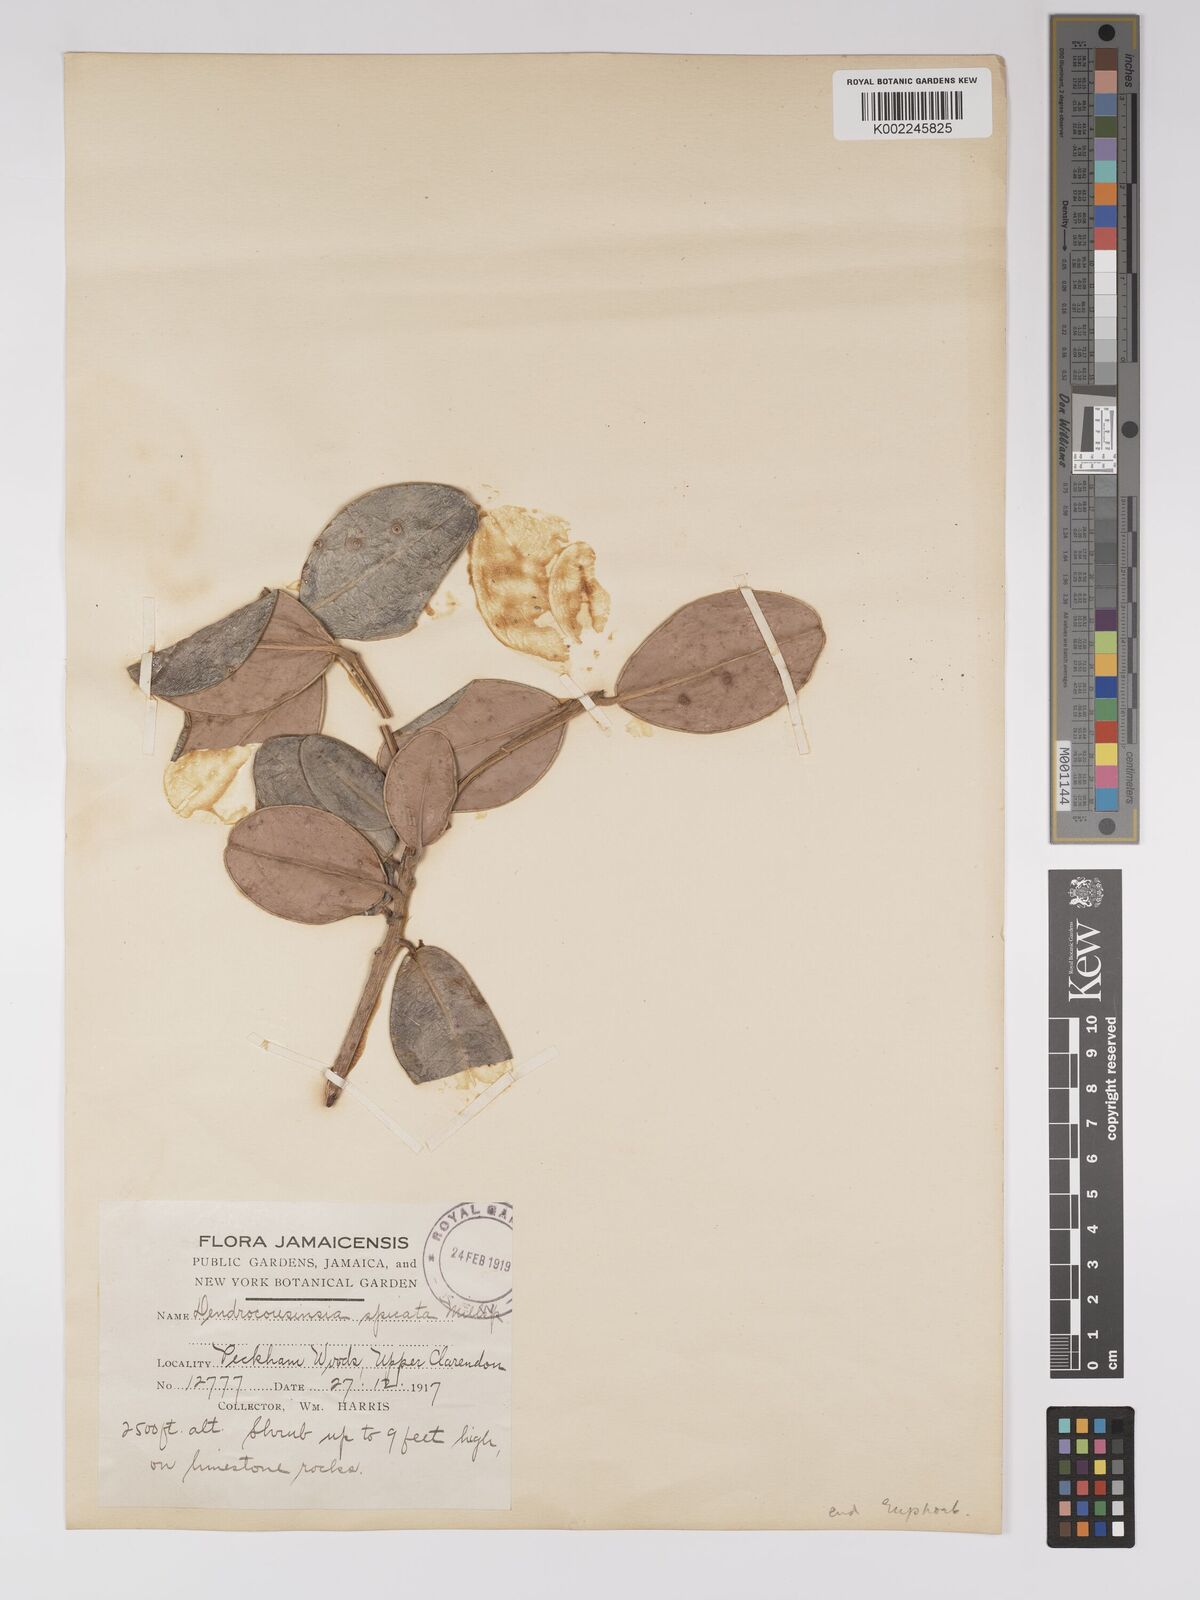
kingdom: Plantae
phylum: Tracheophyta
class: Magnoliopsida
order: Malpighiales
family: Euphorbiaceae
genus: Dendrocousinsia
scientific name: Dendrocousinsia spicata
